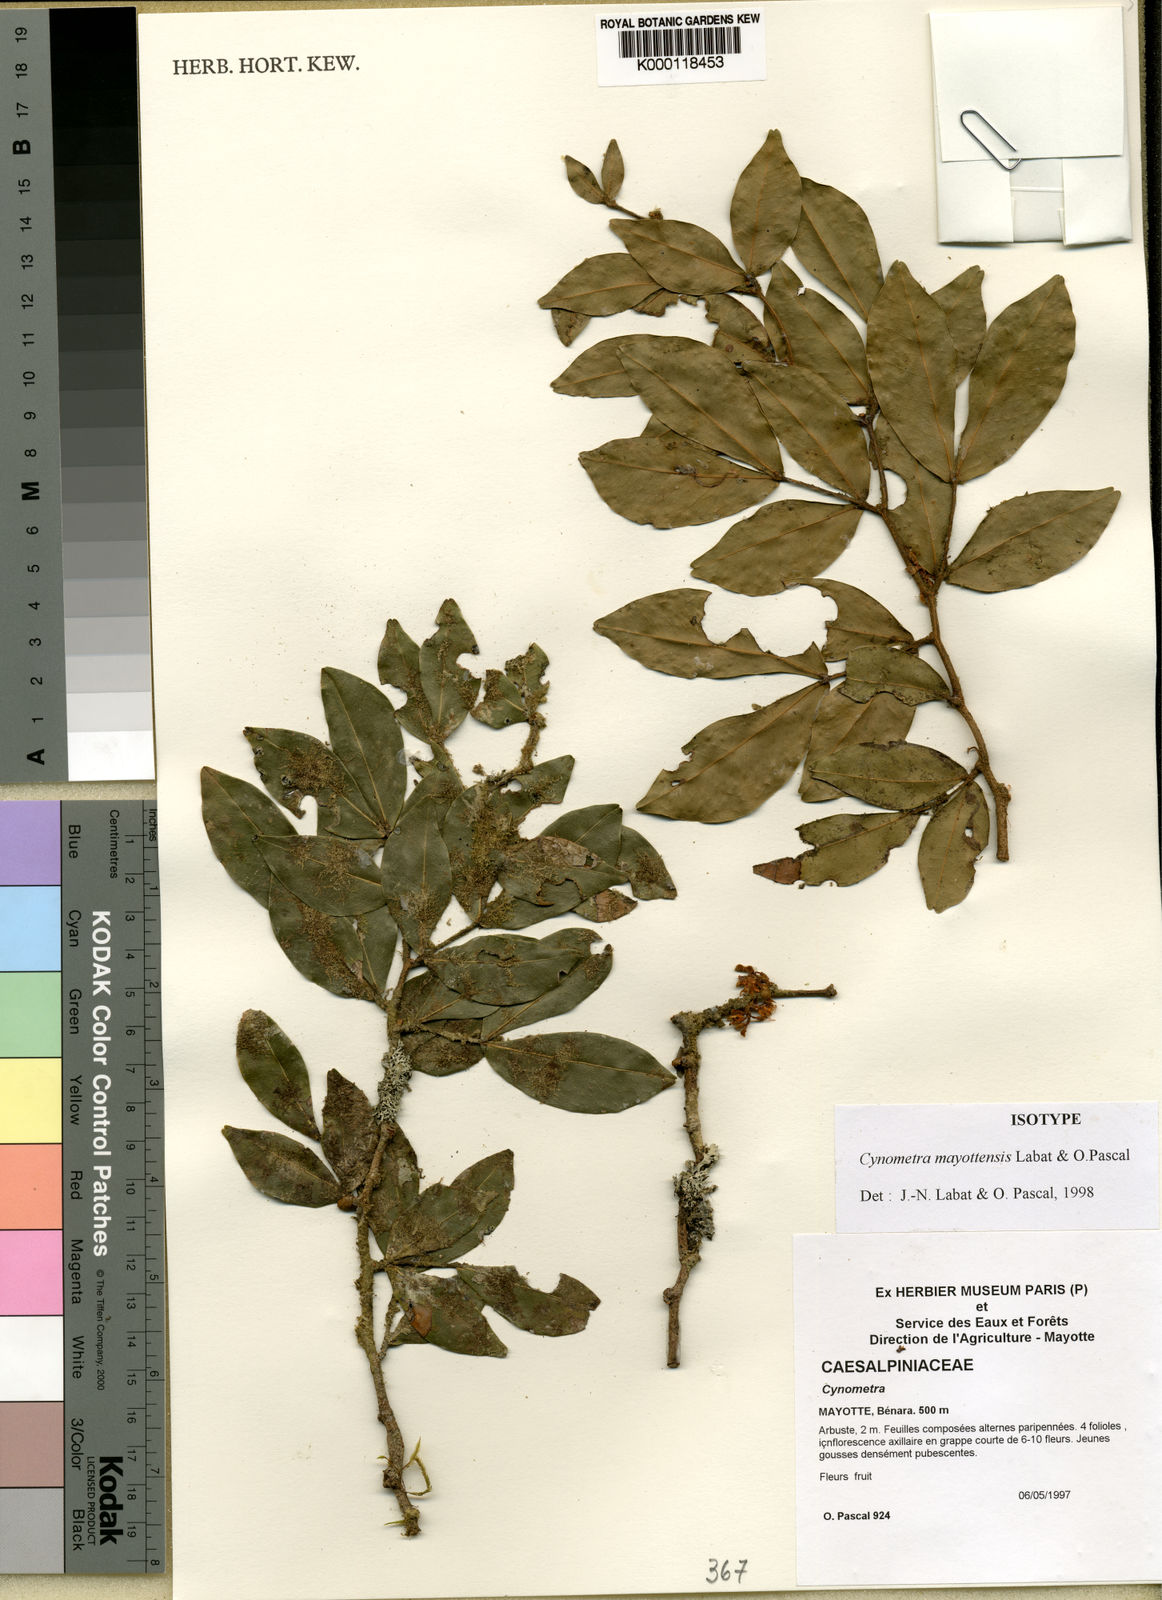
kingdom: Plantae
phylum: Tracheophyta
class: Magnoliopsida
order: Fabales
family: Fabaceae
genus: Cynometra
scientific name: Cynometra
